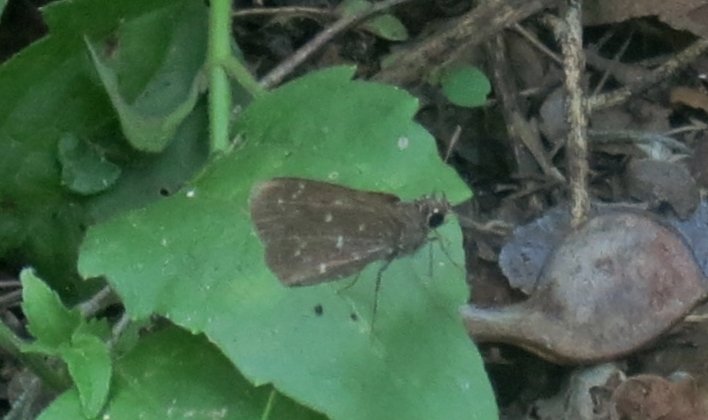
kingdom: Animalia
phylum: Arthropoda
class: Insecta
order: Lepidoptera
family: Hesperiidae
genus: Mastor
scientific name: Mastor celia
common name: Celia's Roadside-Skipper
